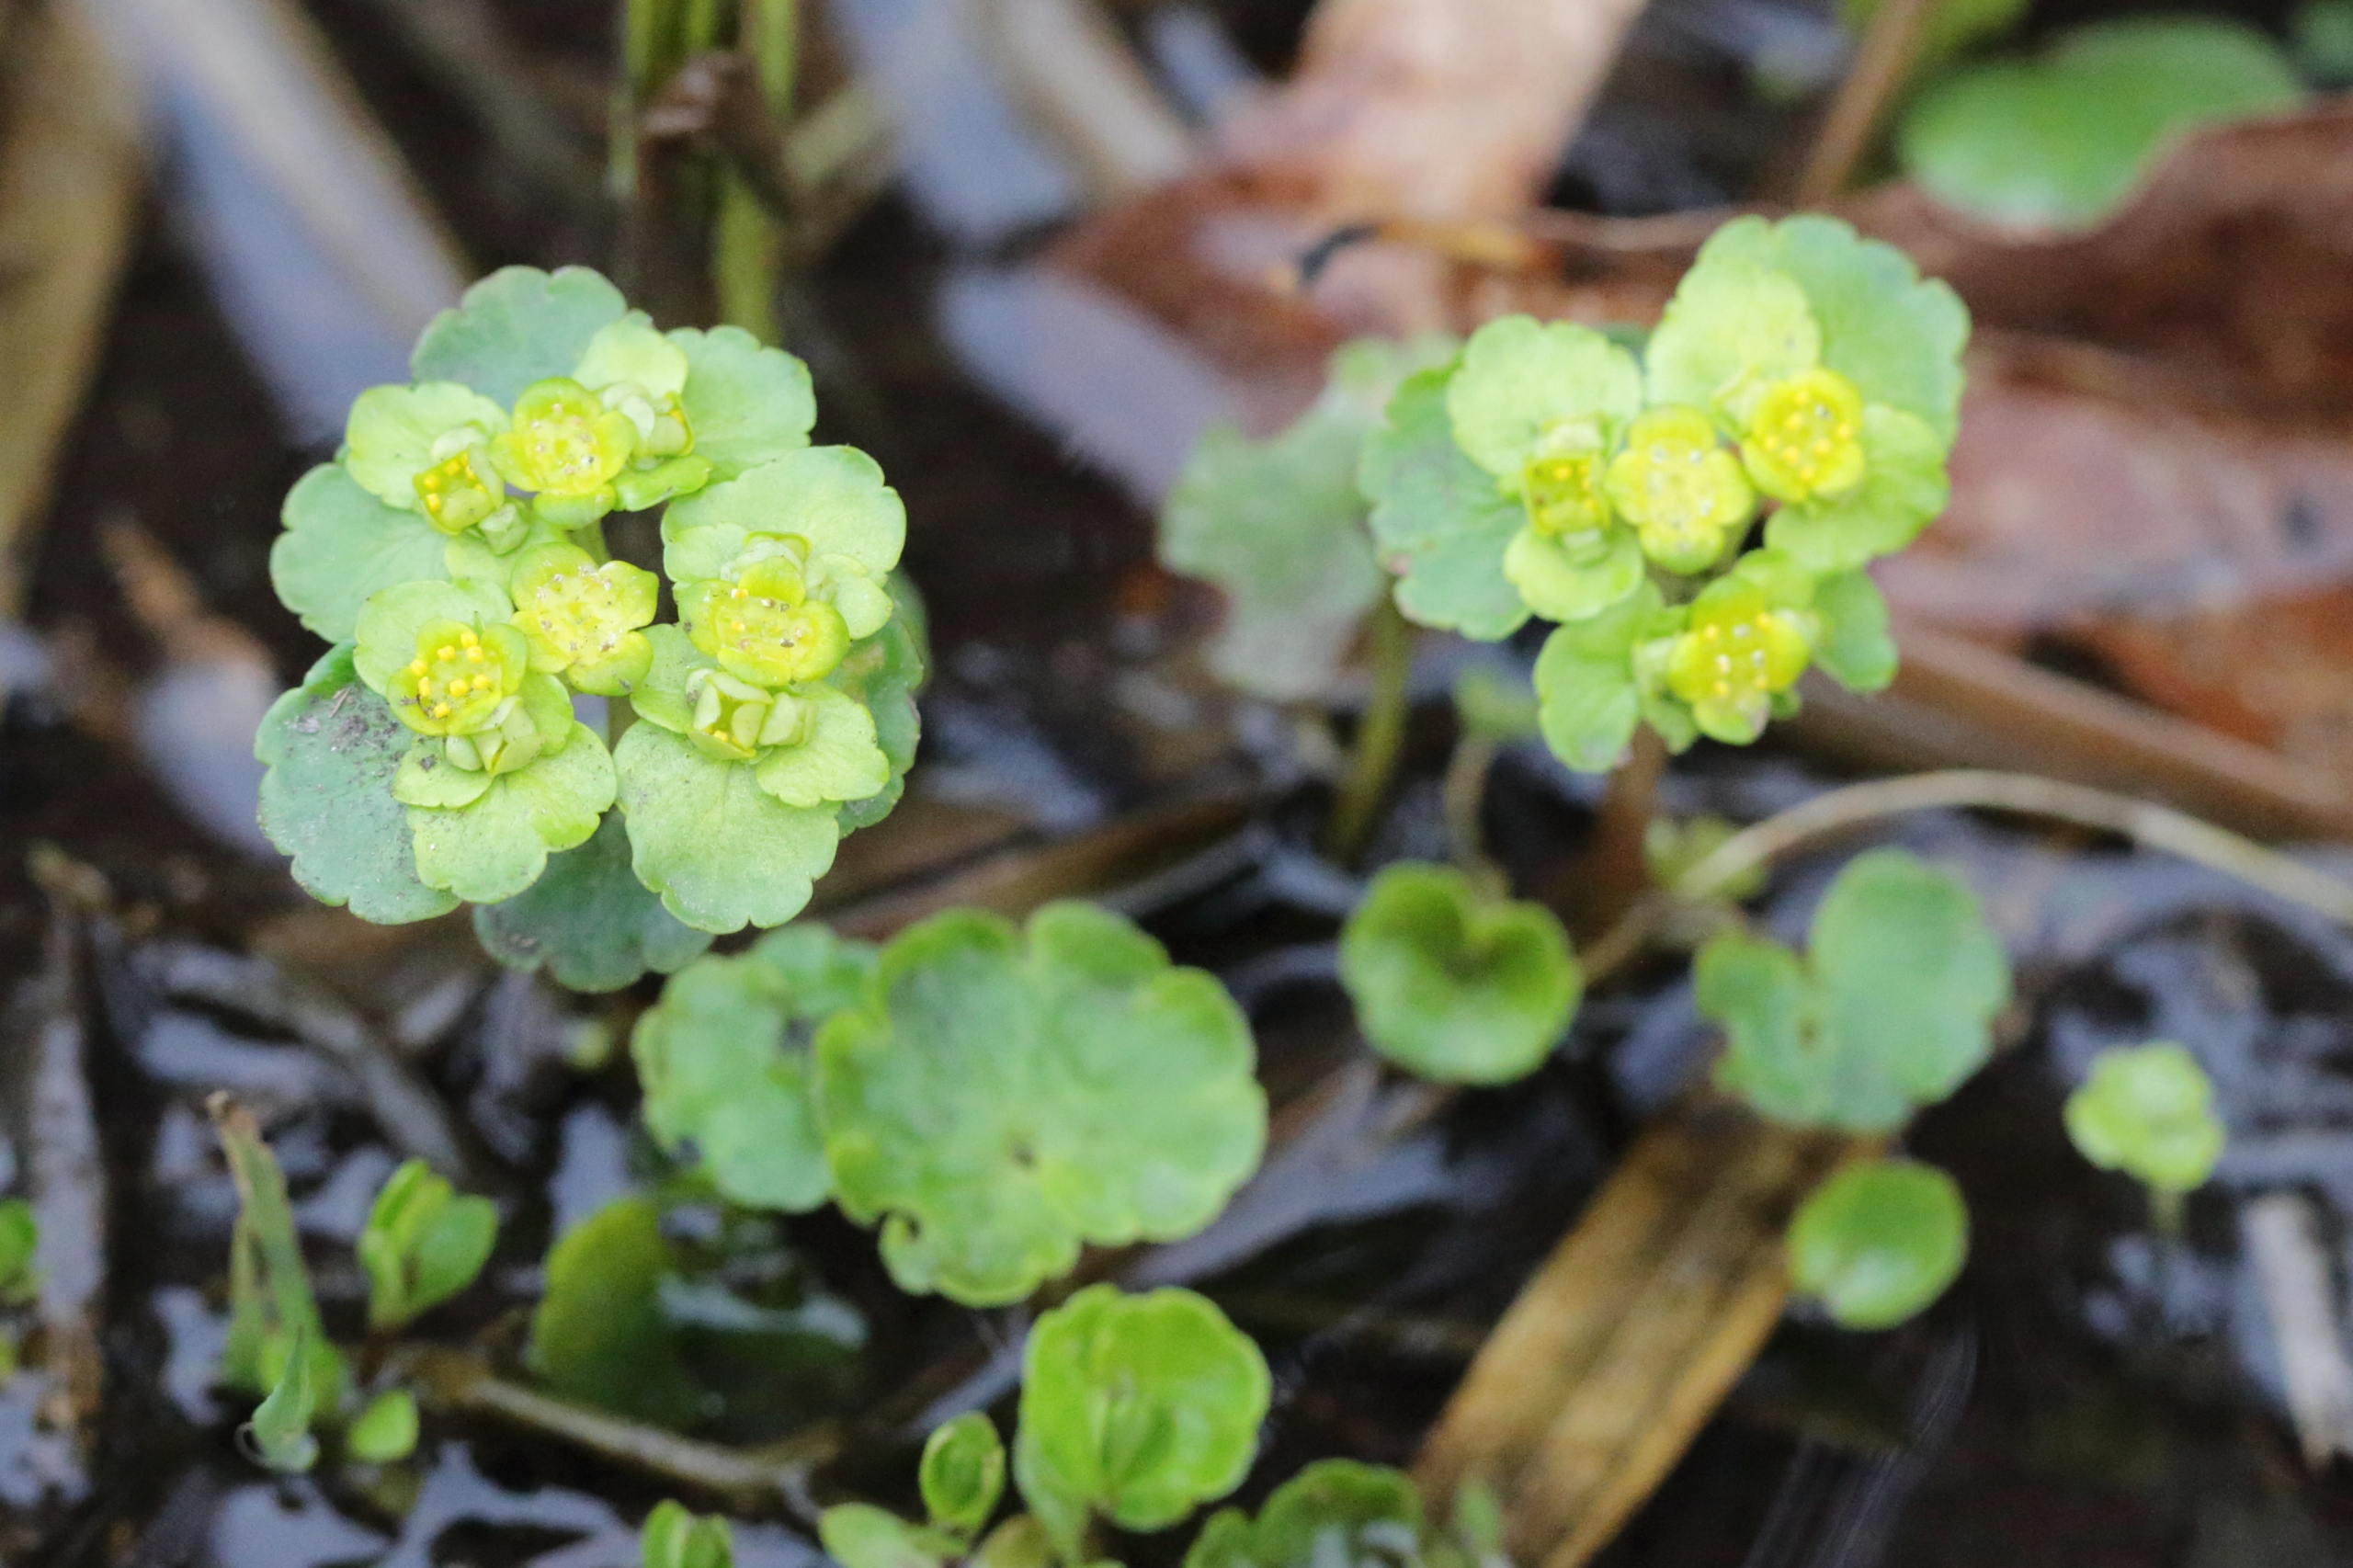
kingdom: Plantae
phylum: Tracheophyta
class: Magnoliopsida
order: Saxifragales
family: Saxifragaceae
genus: Chrysosplenium
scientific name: Chrysosplenium alternifolium
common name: Almindelig milturt
